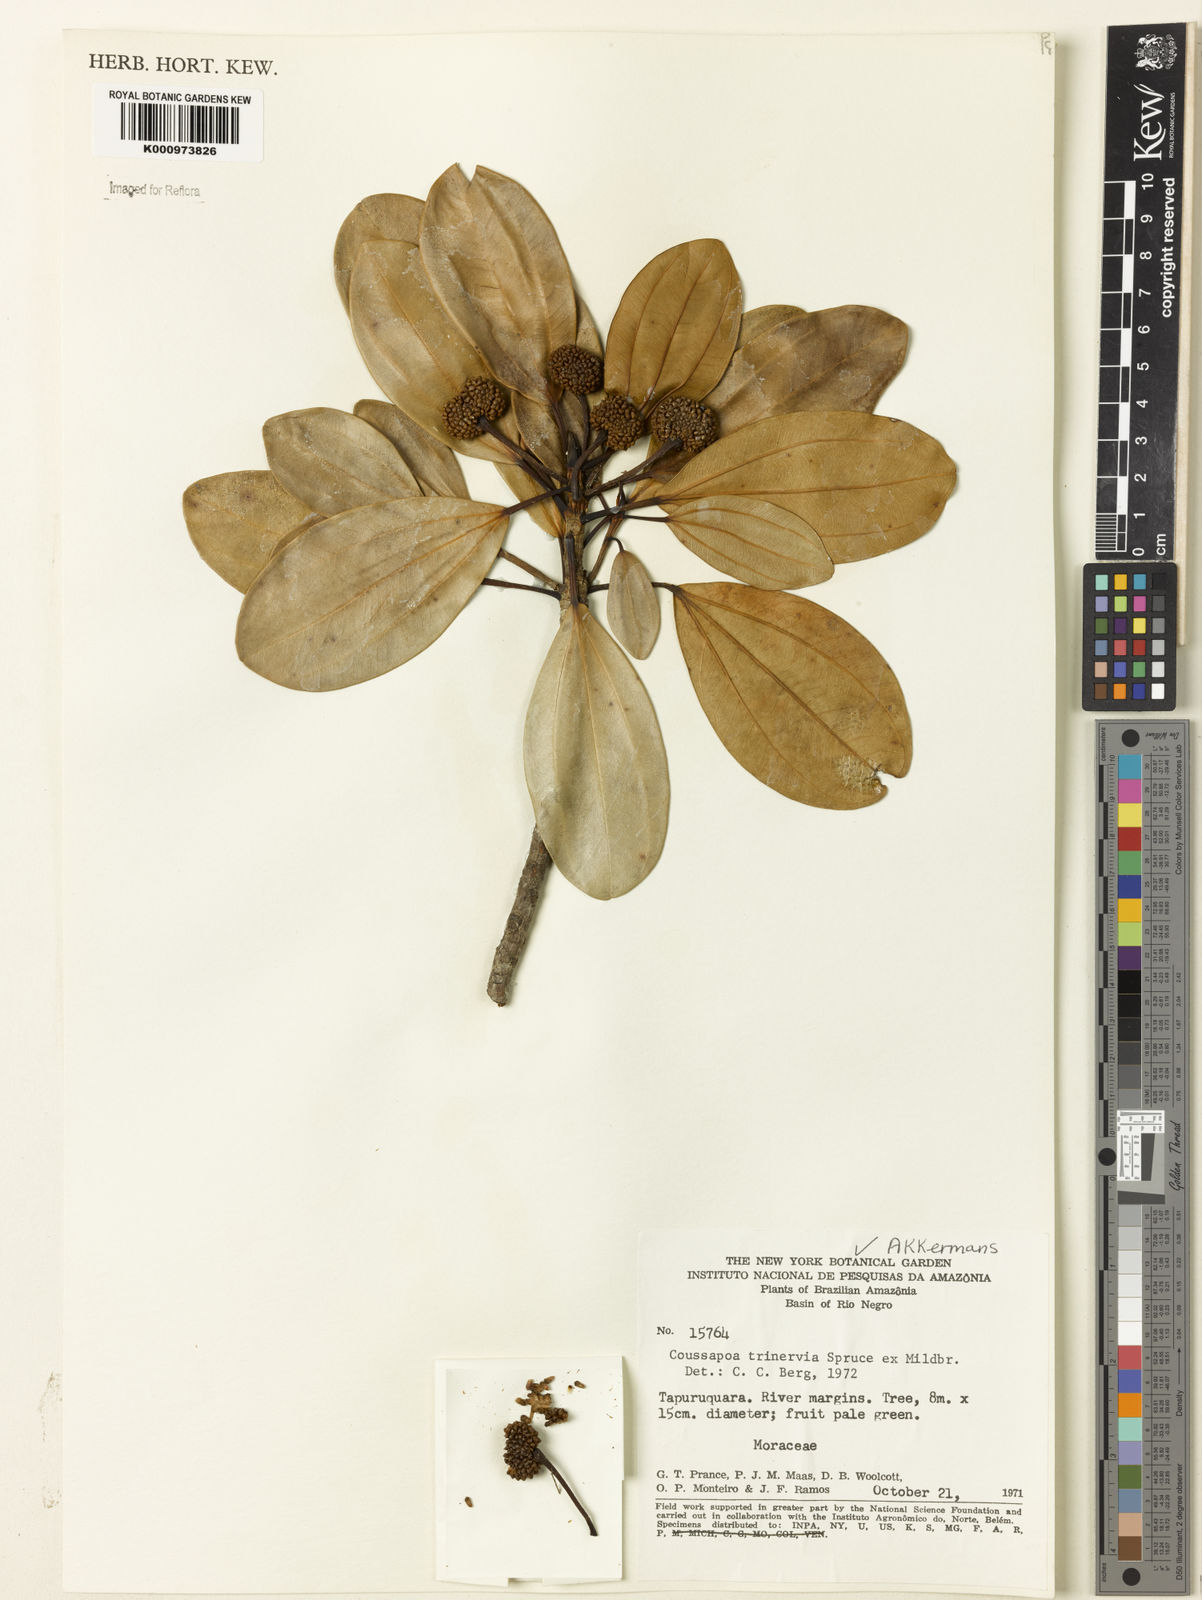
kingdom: Plantae
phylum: Tracheophyta
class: Magnoliopsida
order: Rosales
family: Urticaceae
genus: Coussapoa
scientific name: Coussapoa trinervia
